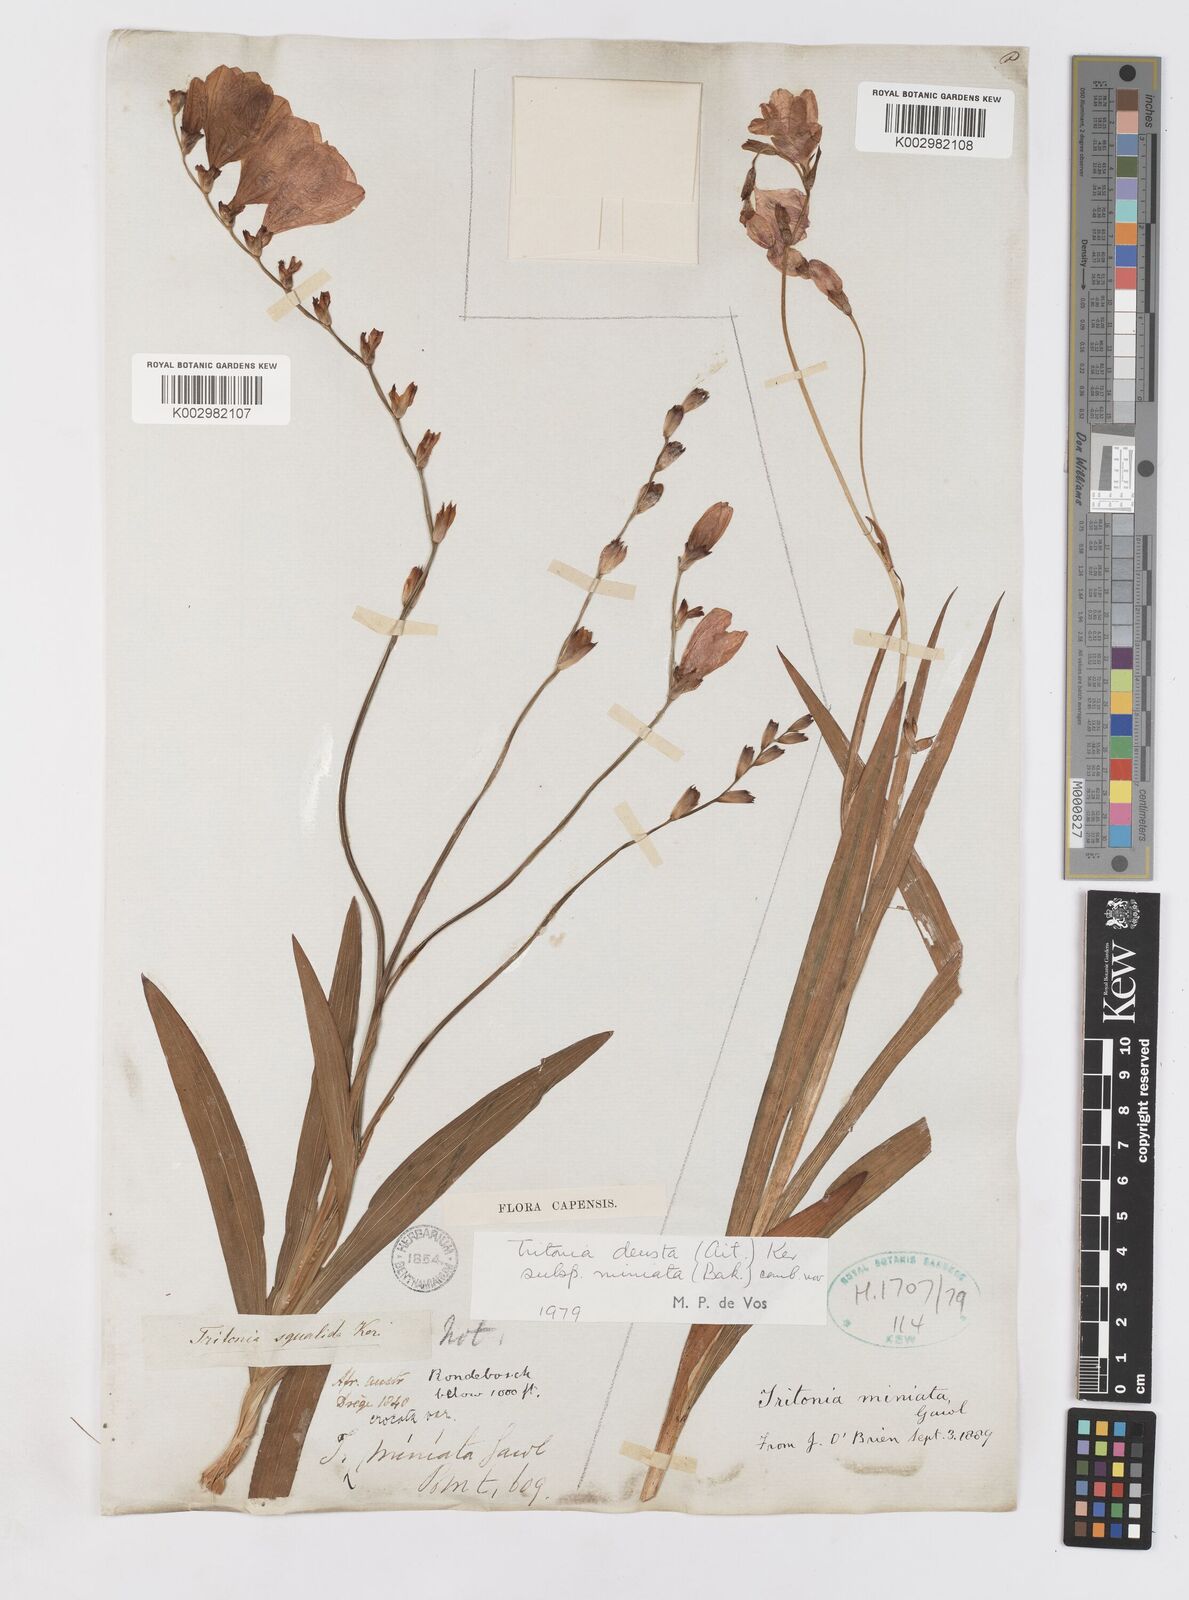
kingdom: Plantae
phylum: Tracheophyta
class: Liliopsida
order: Asparagales
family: Iridaceae
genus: Tritonia
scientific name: Tritonia deusta
